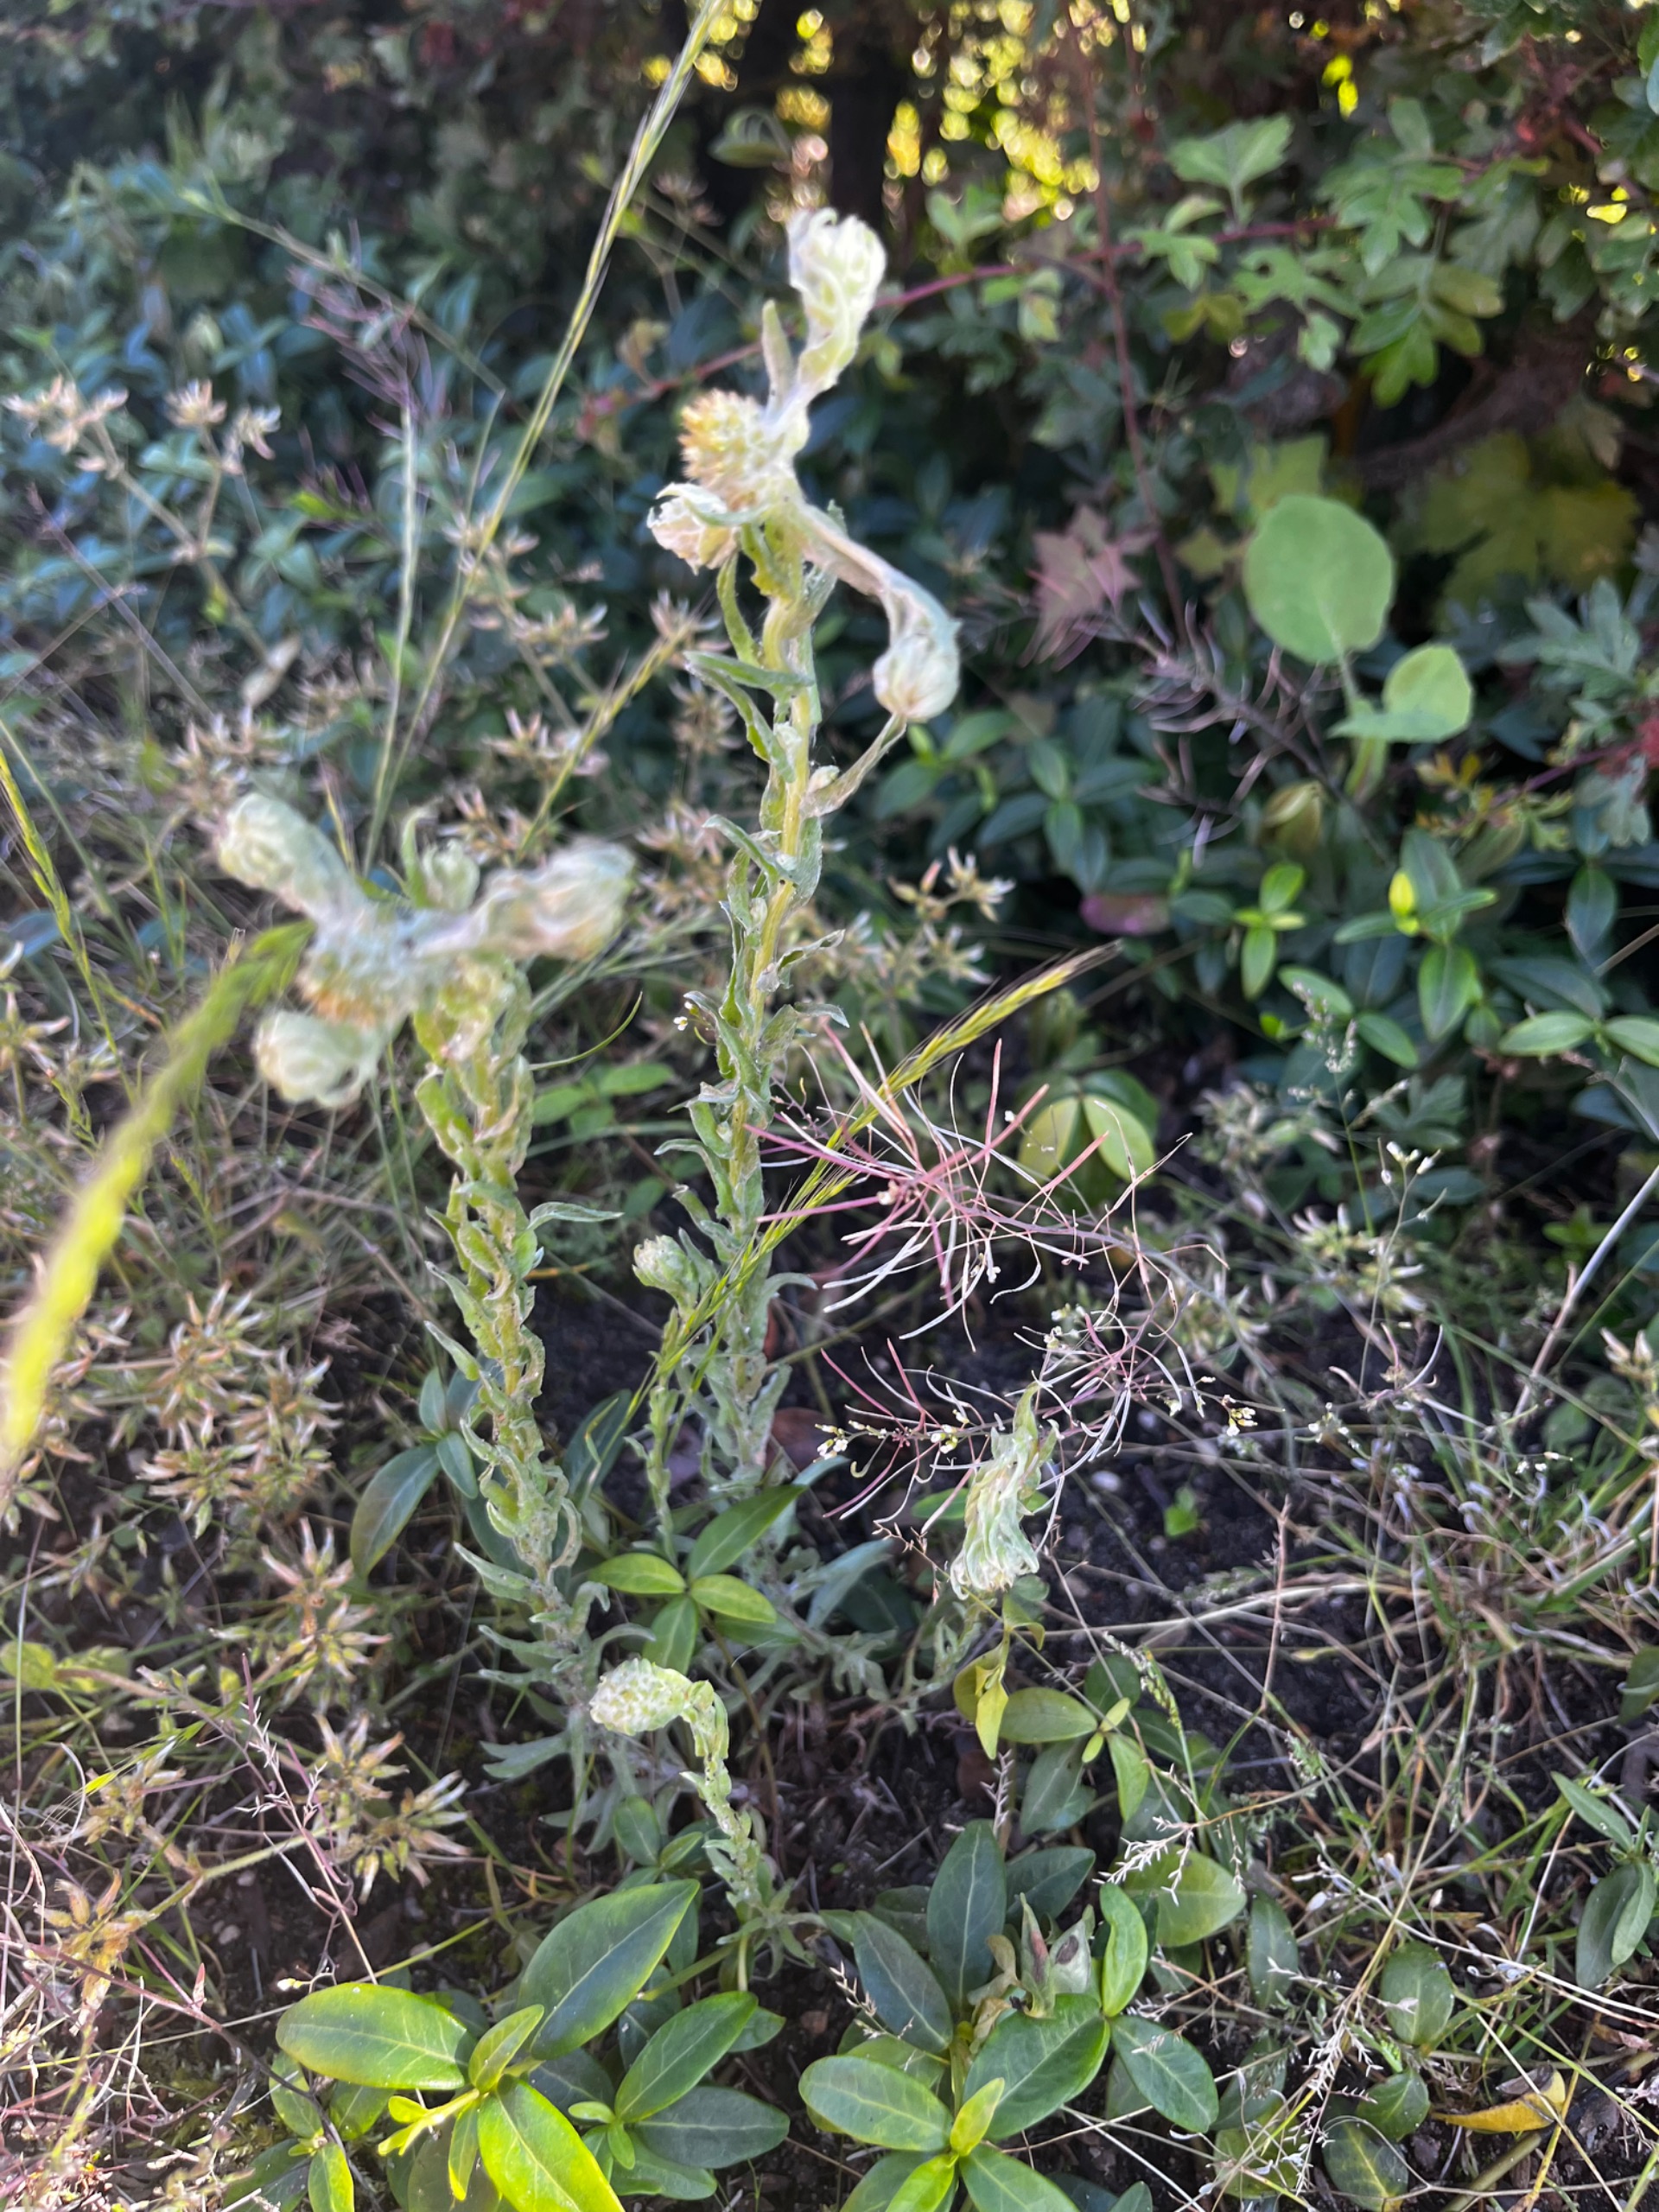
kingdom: Plantae
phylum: Tracheophyta
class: Magnoliopsida
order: Asterales
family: Asteraceae
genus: Filago
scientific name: Filago germanica
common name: Kugle-museurt
